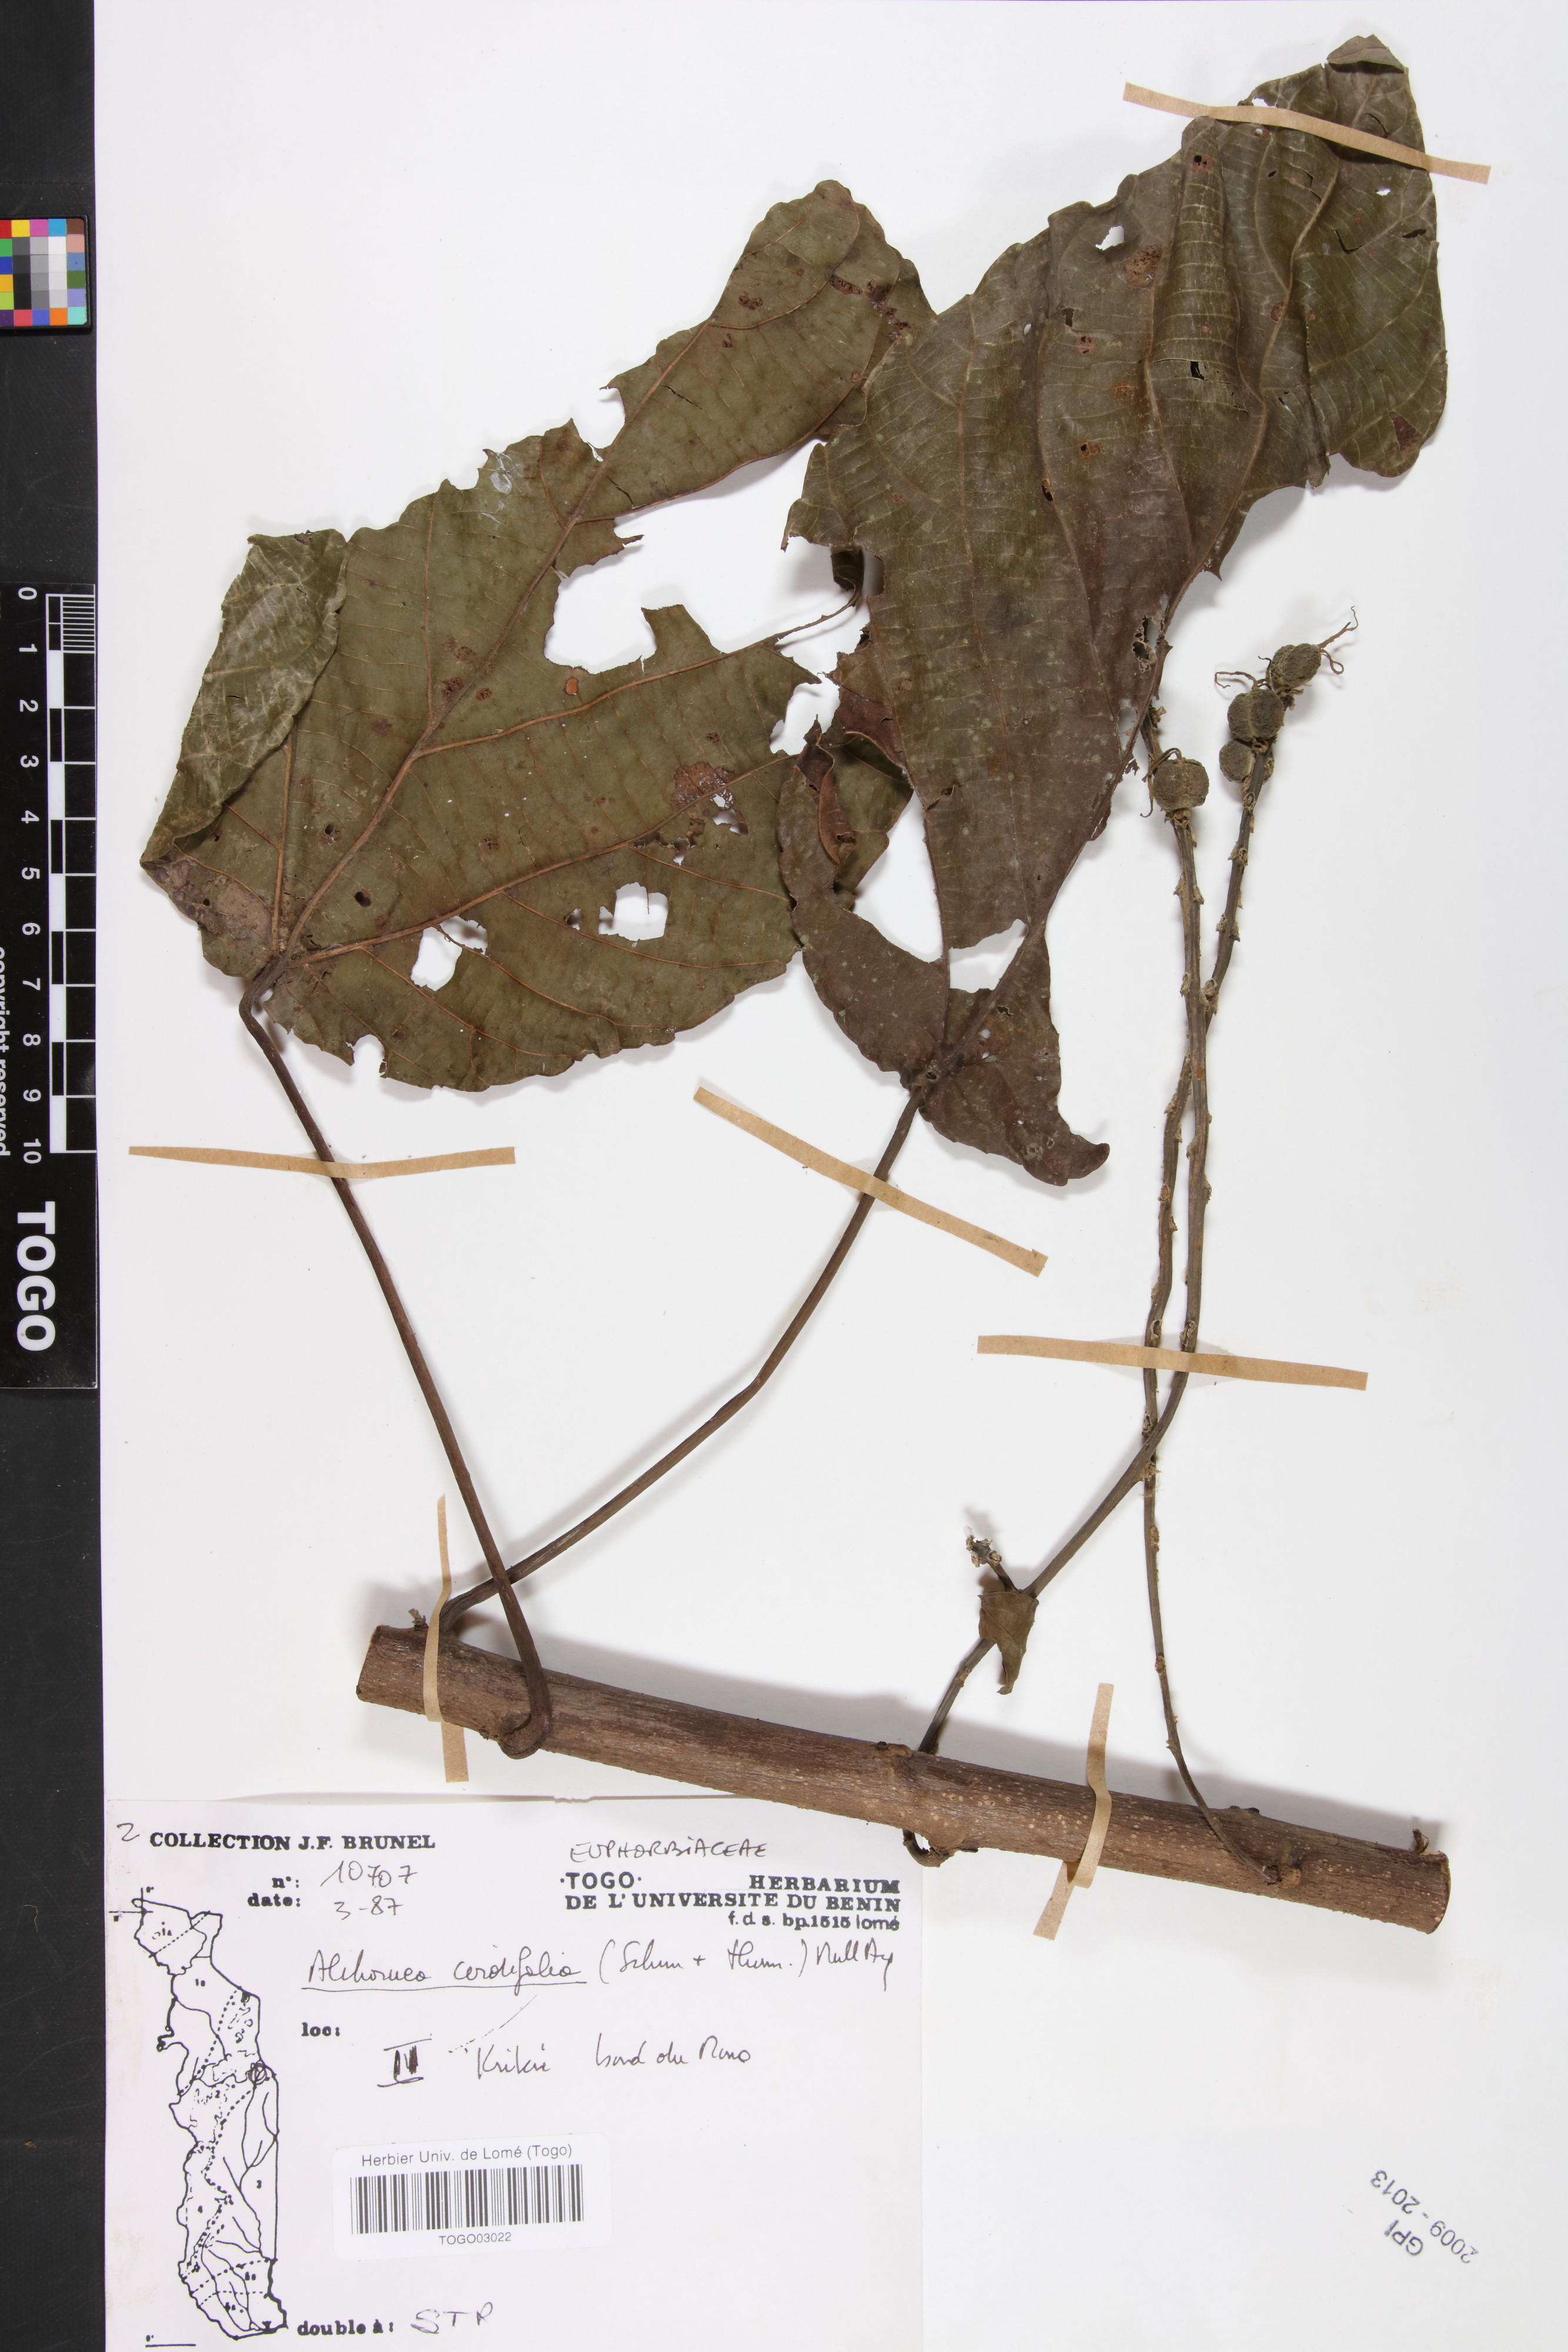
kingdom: Plantae
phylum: Tracheophyta
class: Magnoliopsida
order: Malpighiales
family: Euphorbiaceae
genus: Alchornea
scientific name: Alchornea cordifolia
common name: Christmasbush
